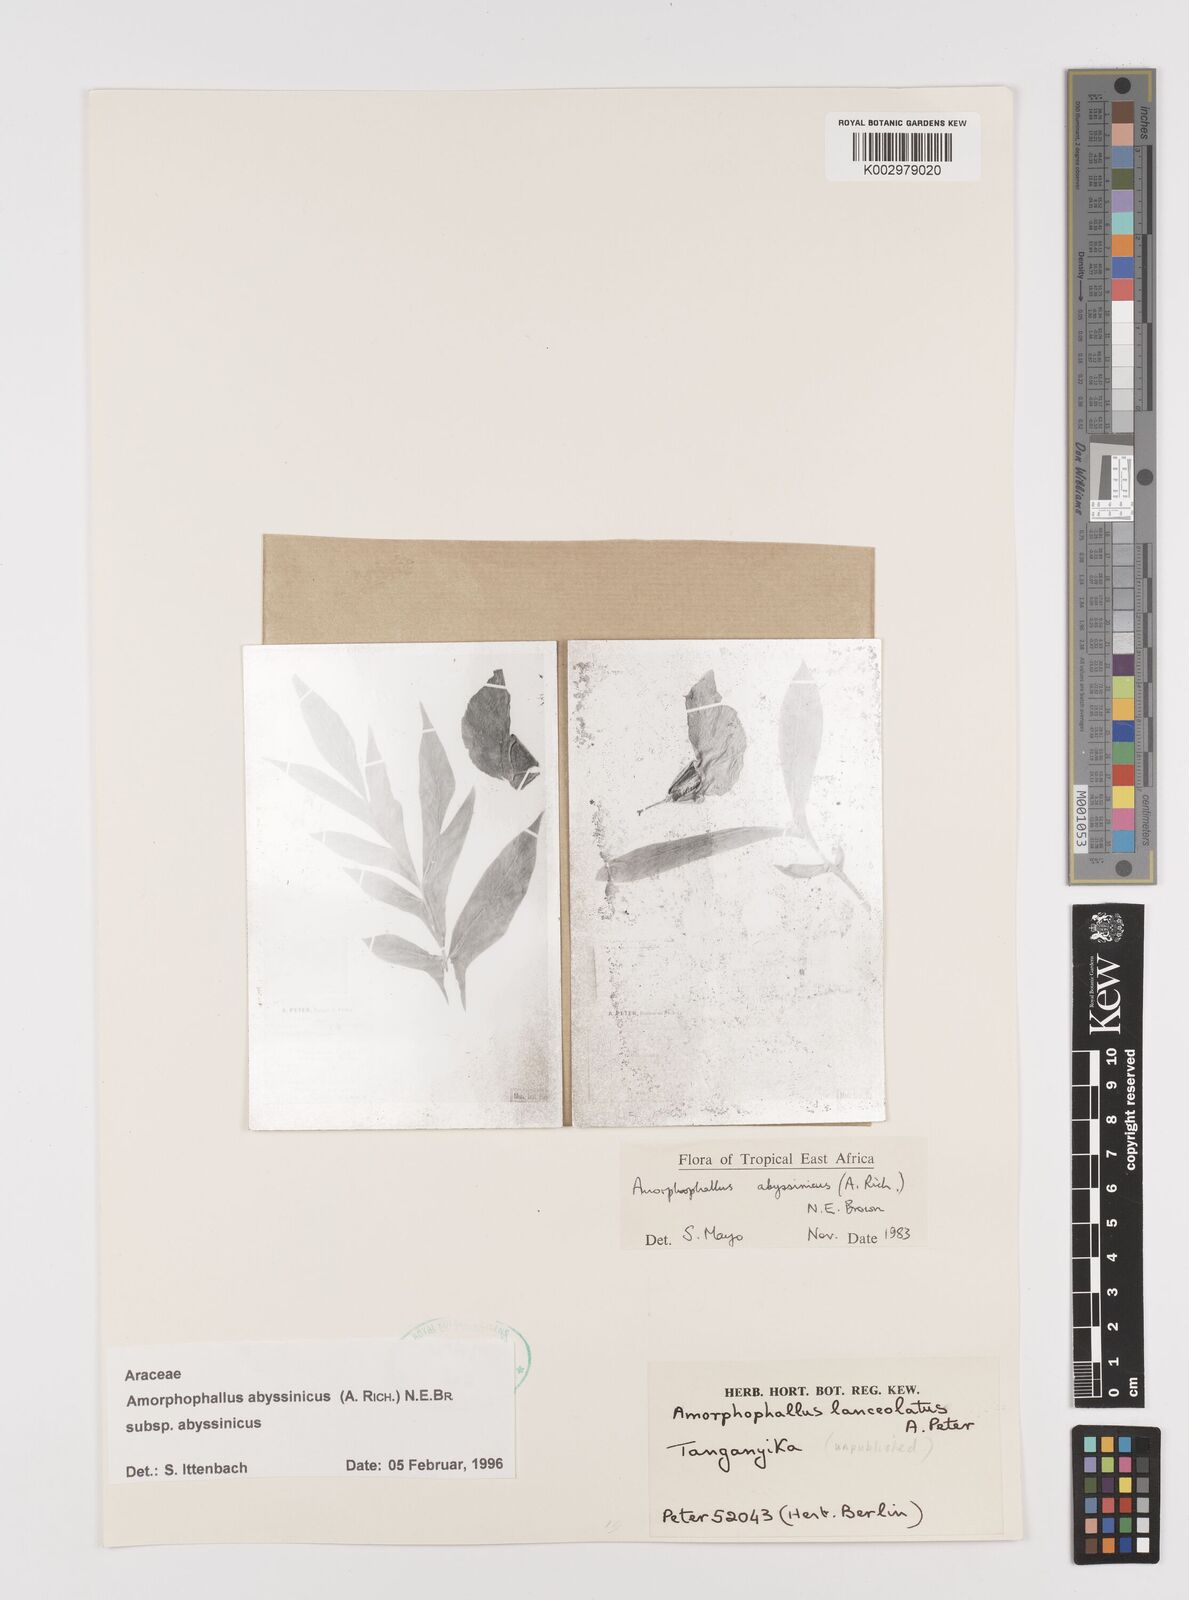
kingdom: Plantae
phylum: Tracheophyta
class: Liliopsida
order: Alismatales
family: Araceae
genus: Amorphophallus
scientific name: Amorphophallus abyssinicus
